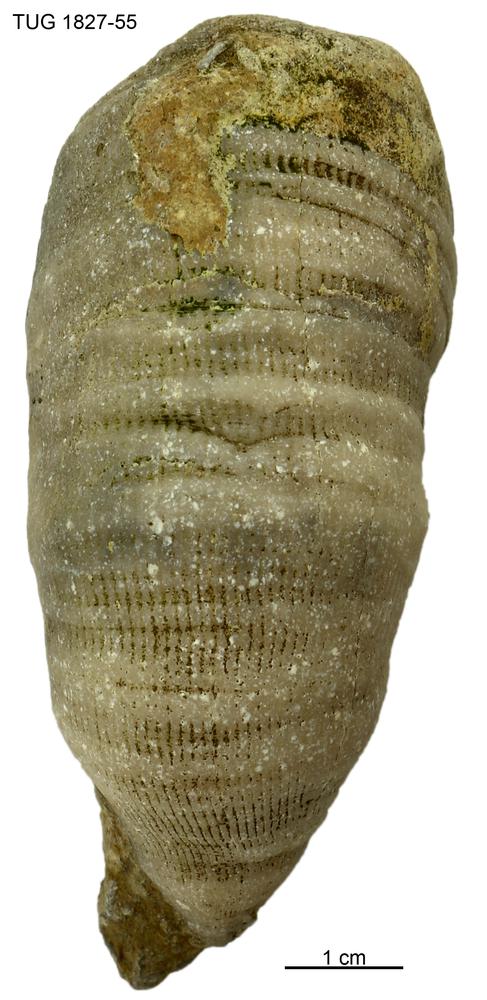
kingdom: Animalia
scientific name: Animalia
